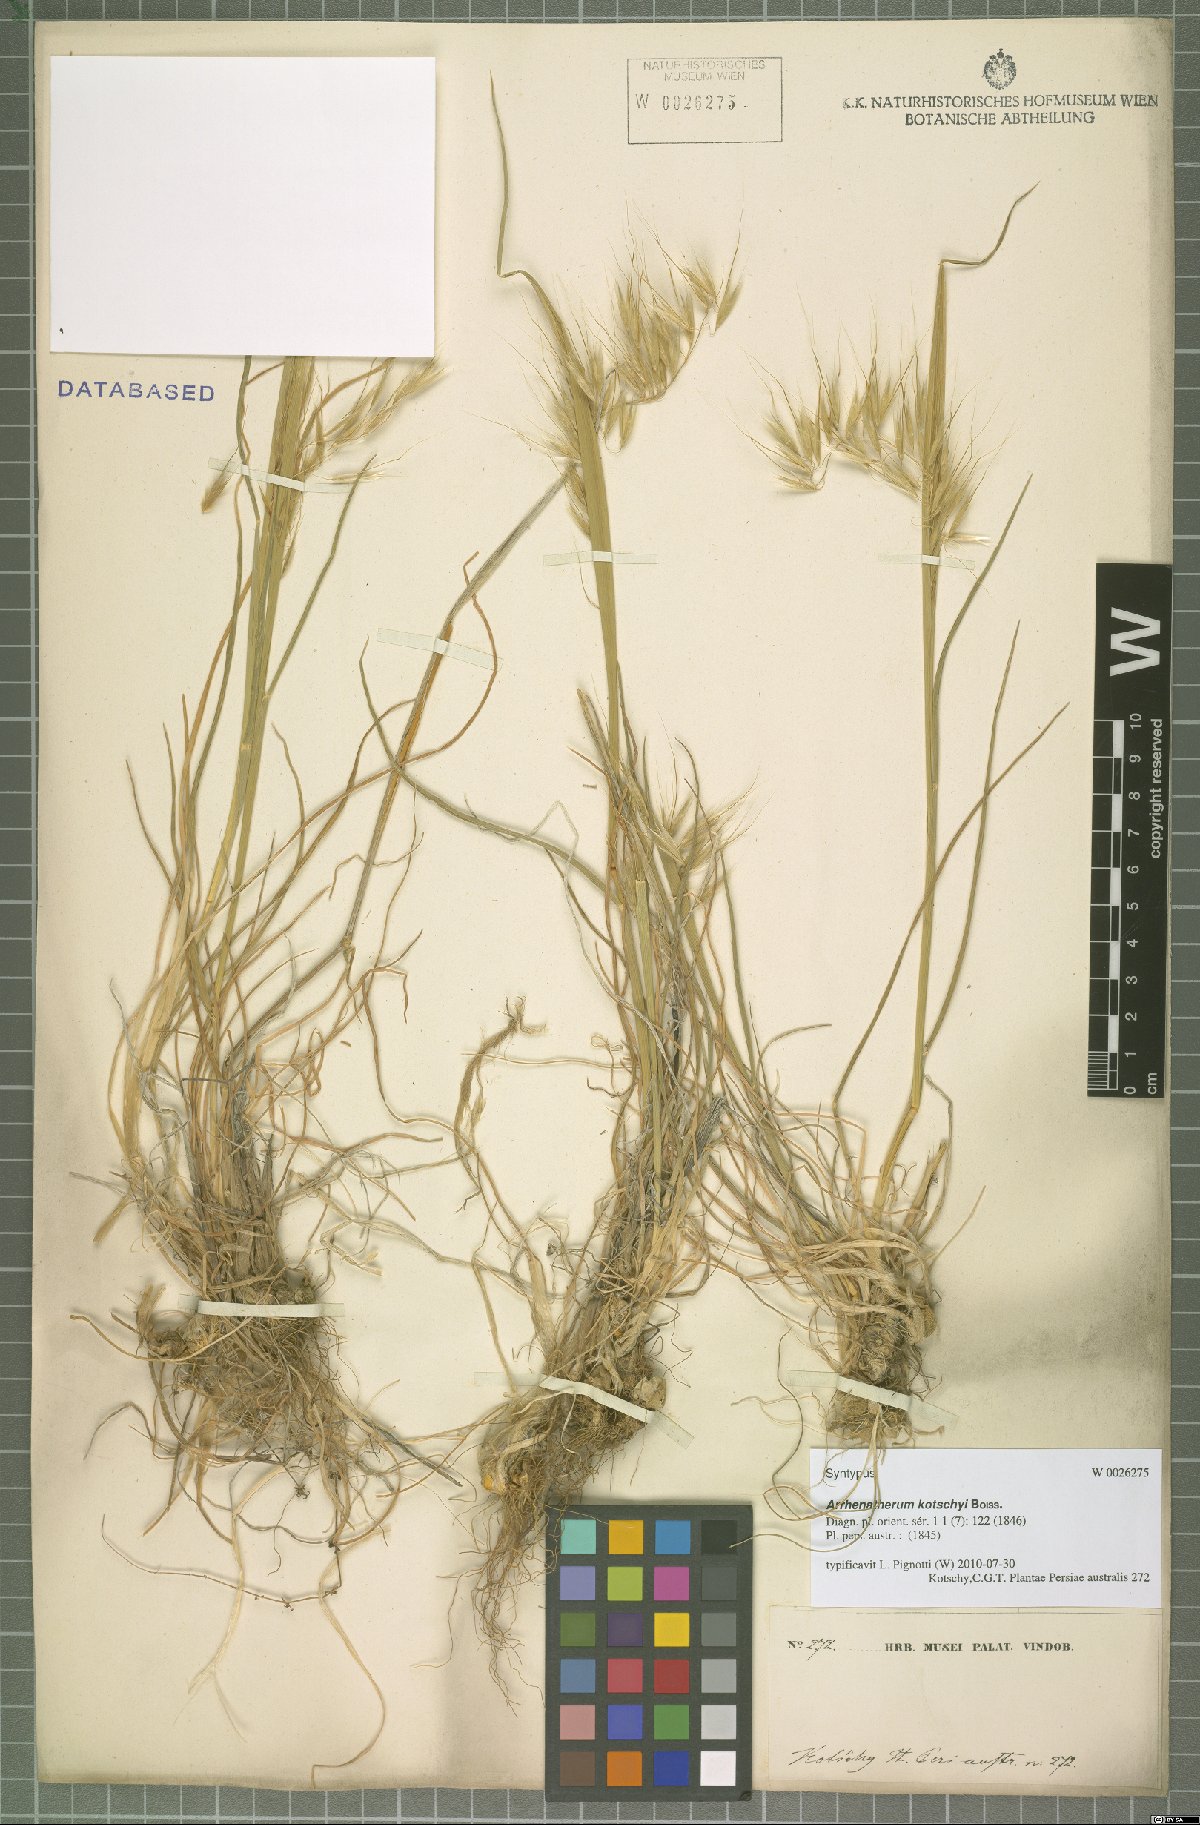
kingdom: Plantae
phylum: Tracheophyta
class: Liliopsida
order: Poales
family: Poaceae
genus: Arrhenatherum
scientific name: Arrhenatherum kotschyi
